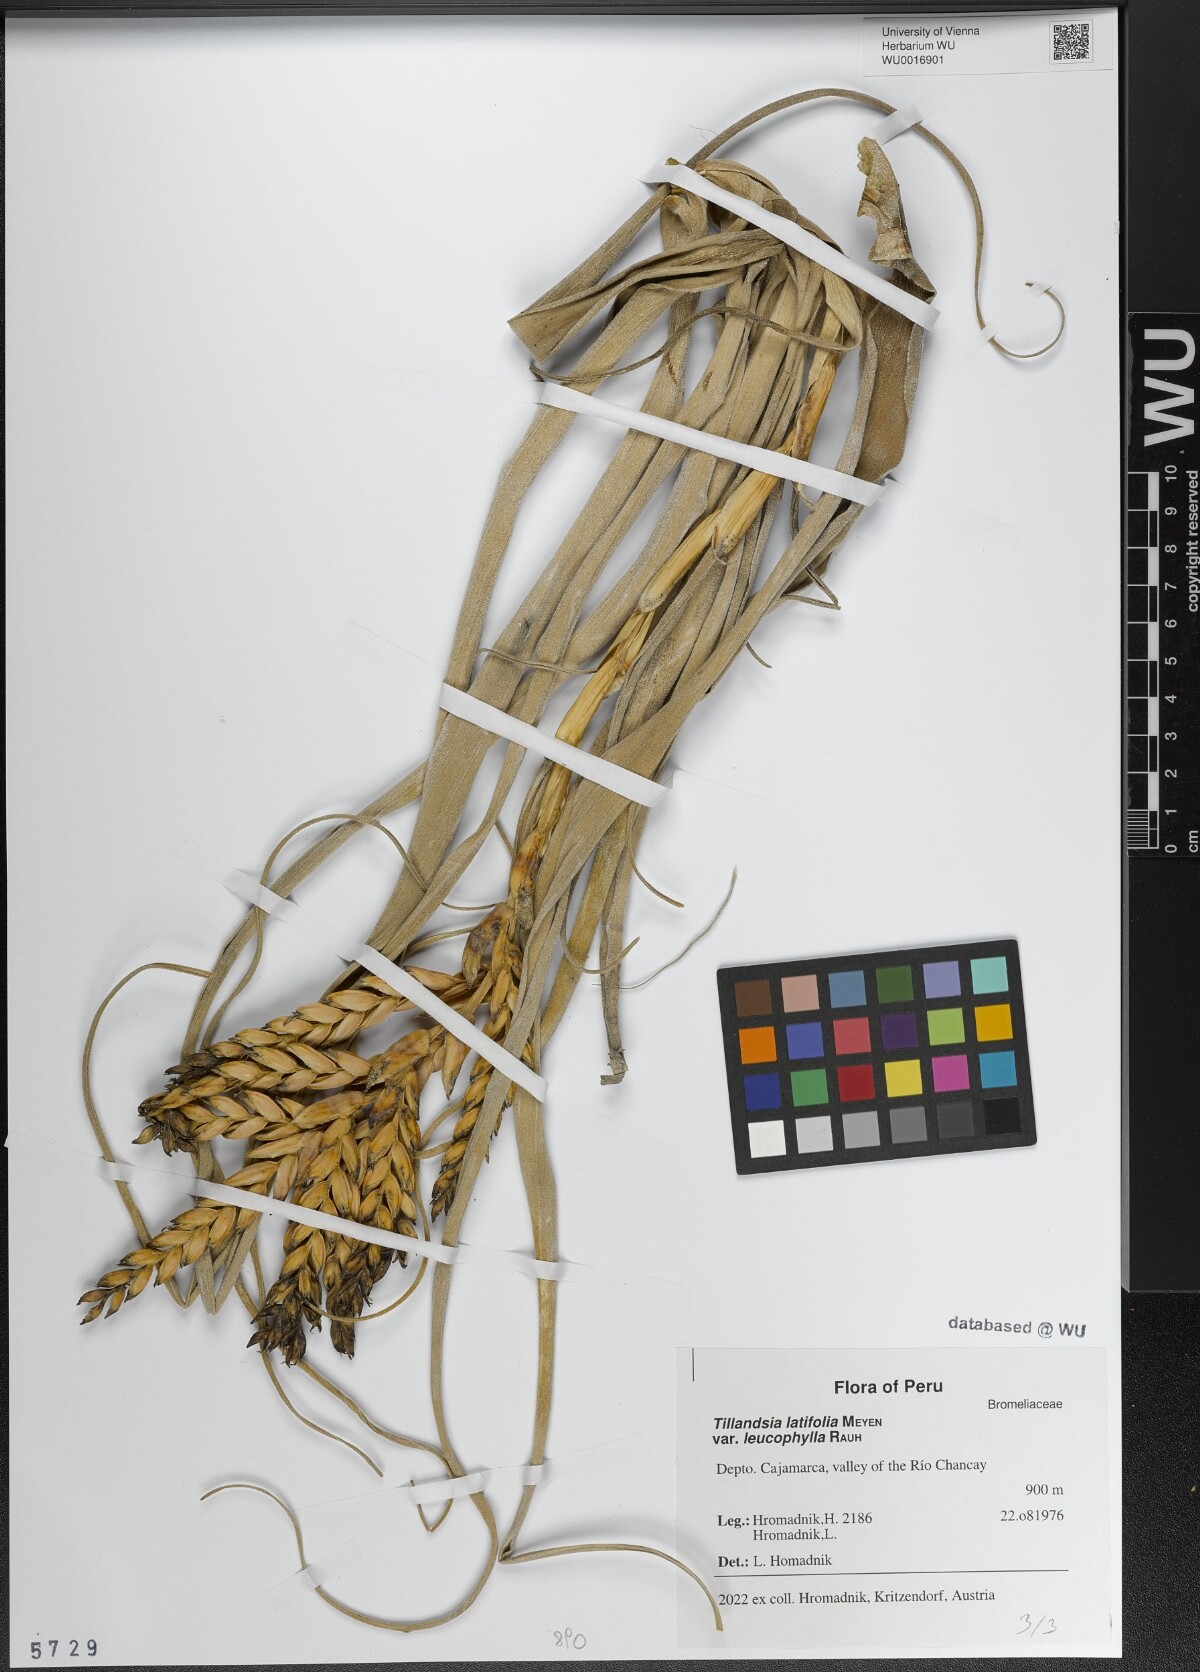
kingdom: Plantae
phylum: Tracheophyta
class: Liliopsida
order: Poales
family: Bromeliaceae
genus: Tillandsia
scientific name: Tillandsia latifolia
